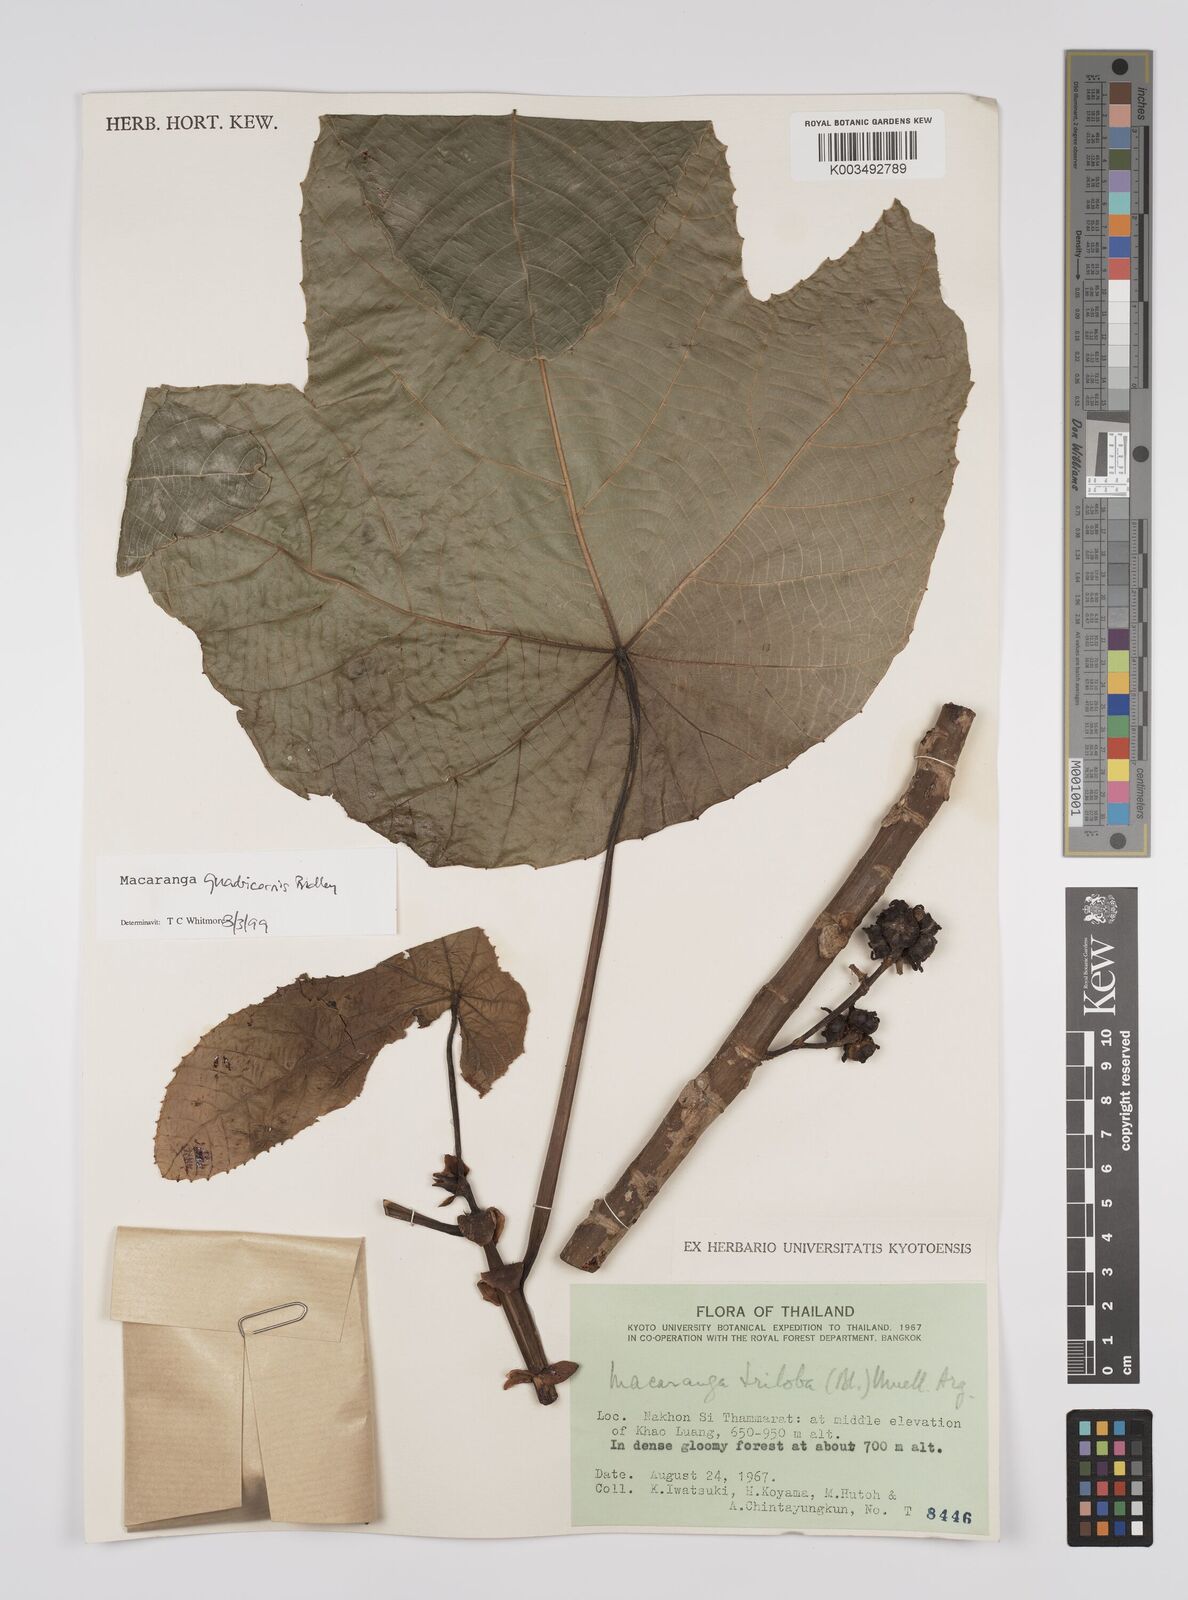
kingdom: Plantae
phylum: Tracheophyta
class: Magnoliopsida
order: Malpighiales
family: Euphorbiaceae
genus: Macaranga
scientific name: Macaranga triloba
